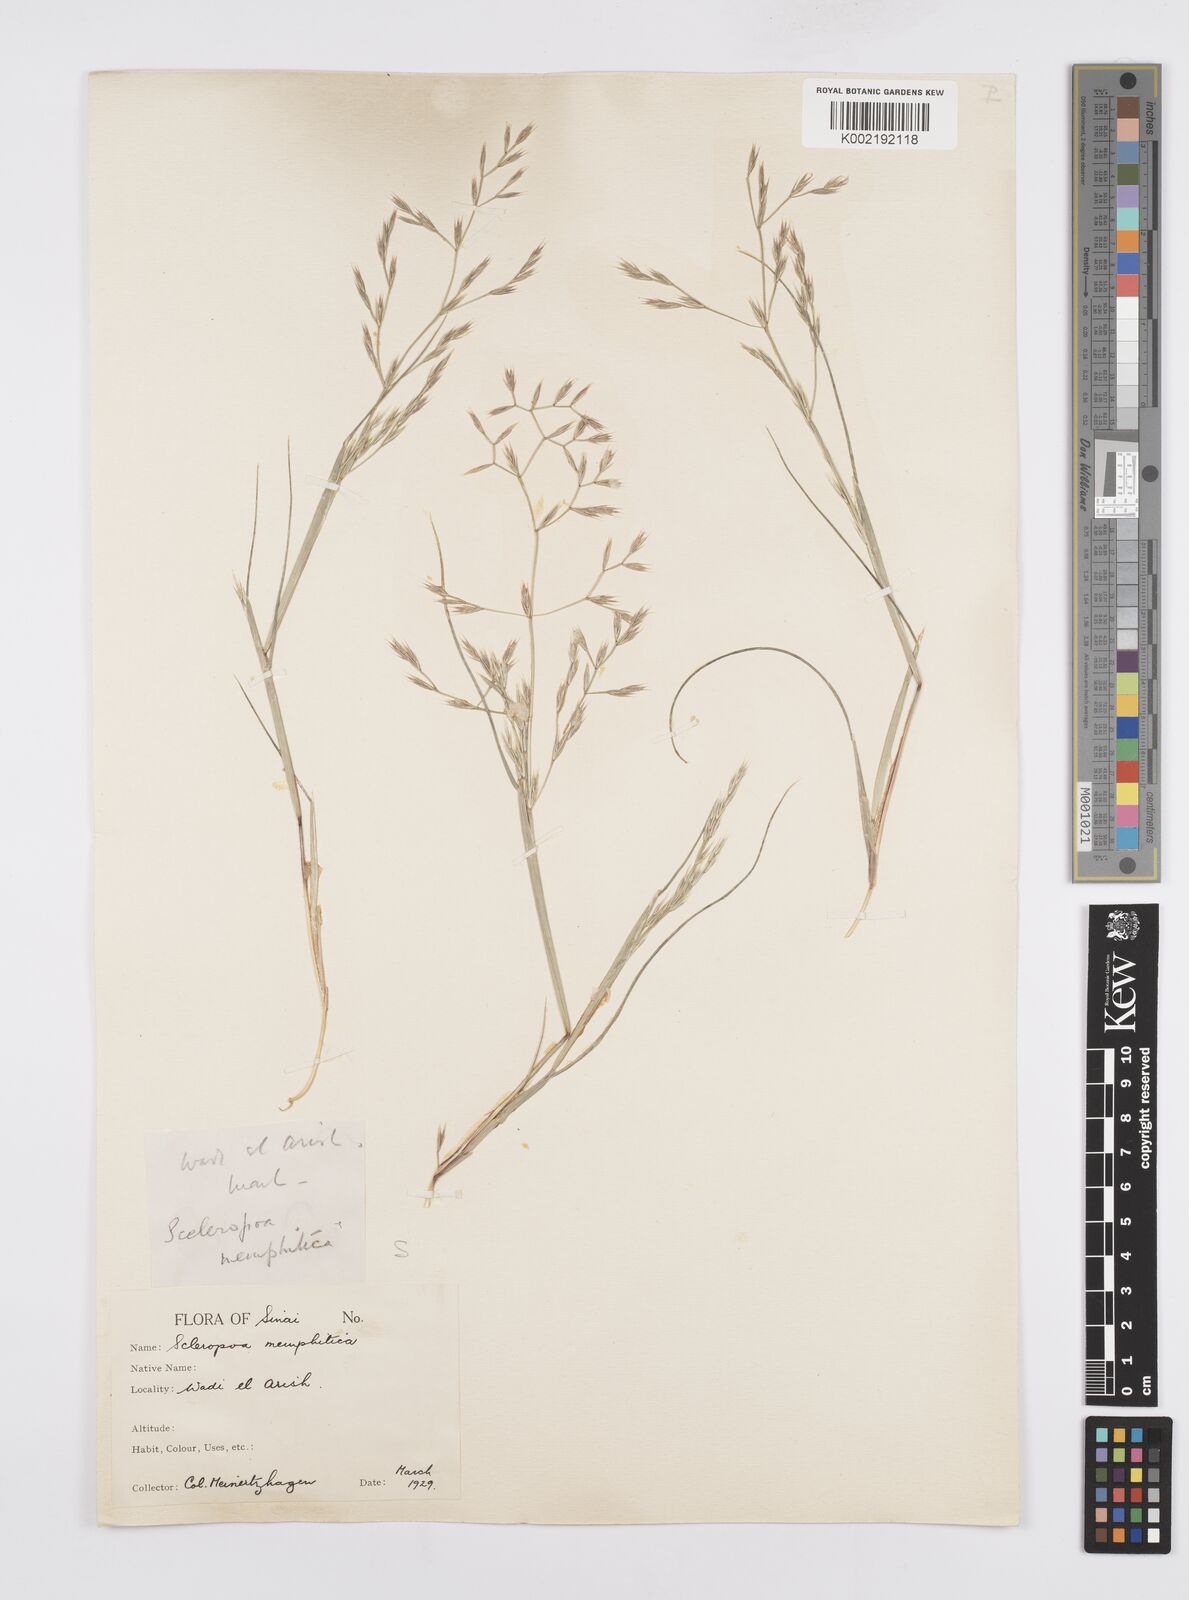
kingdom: Plantae
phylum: Tracheophyta
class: Liliopsida
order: Poales
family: Poaceae
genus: Cutandia
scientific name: Cutandia memphitica
